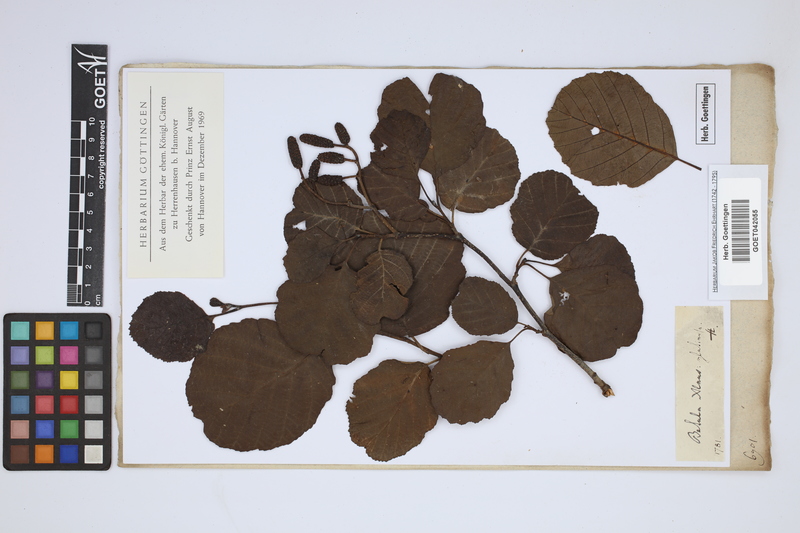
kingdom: Plantae
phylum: Tracheophyta
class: Magnoliopsida
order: Fagales
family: Betulaceae
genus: Alnus
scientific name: Alnus glutinosa
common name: Black alder
